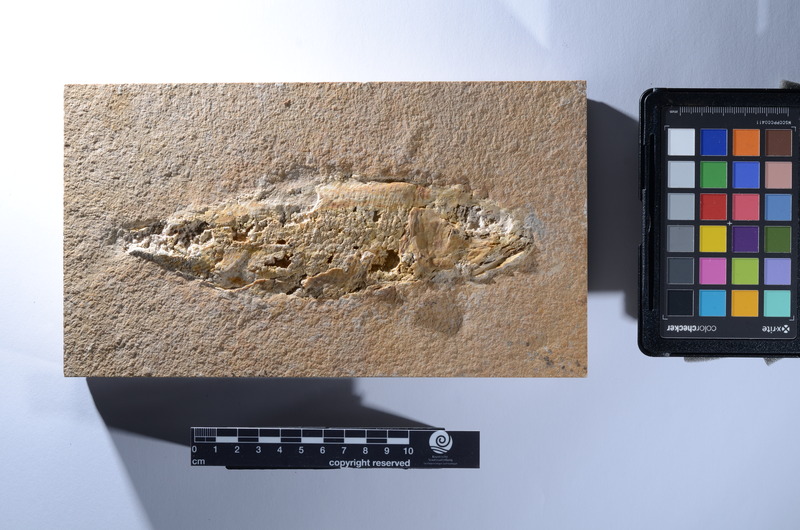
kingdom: Animalia
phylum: Chordata
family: Ankylophoridae
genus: Pholidophoristion
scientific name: Pholidophoristion micronyx
